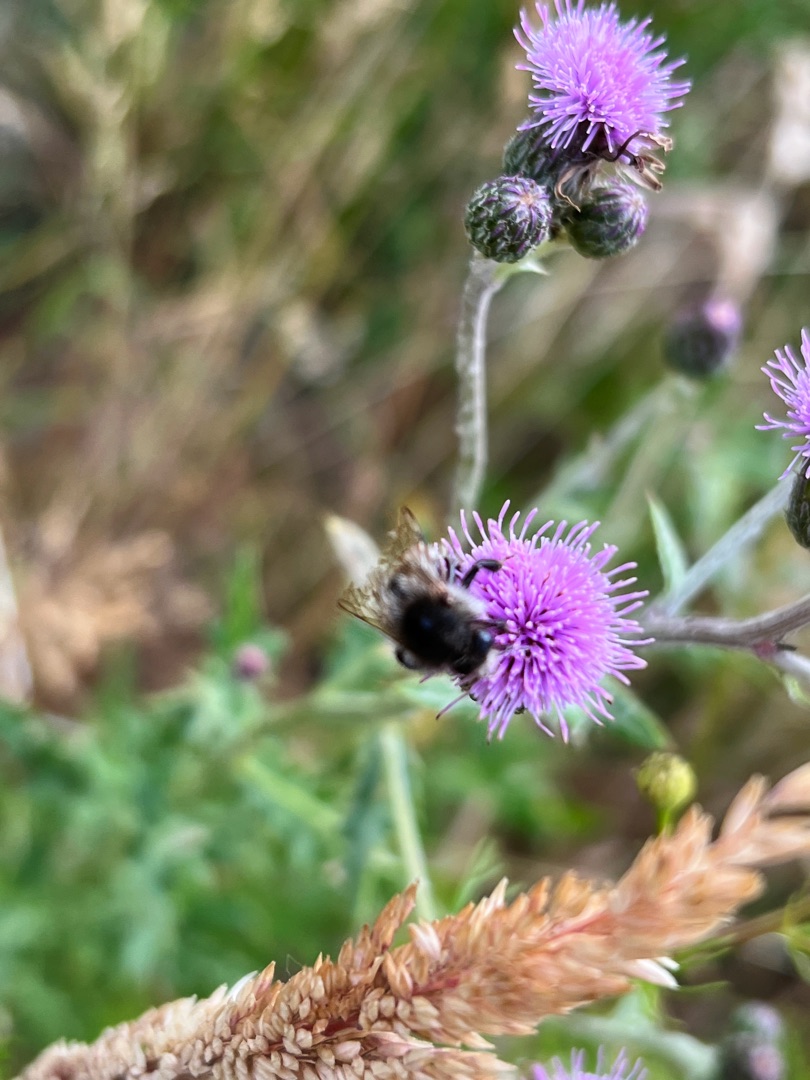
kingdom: Plantae
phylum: Tracheophyta
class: Magnoliopsida
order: Asterales
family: Asteraceae
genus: Cirsium
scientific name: Cirsium arvense
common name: Ager-tidsel
